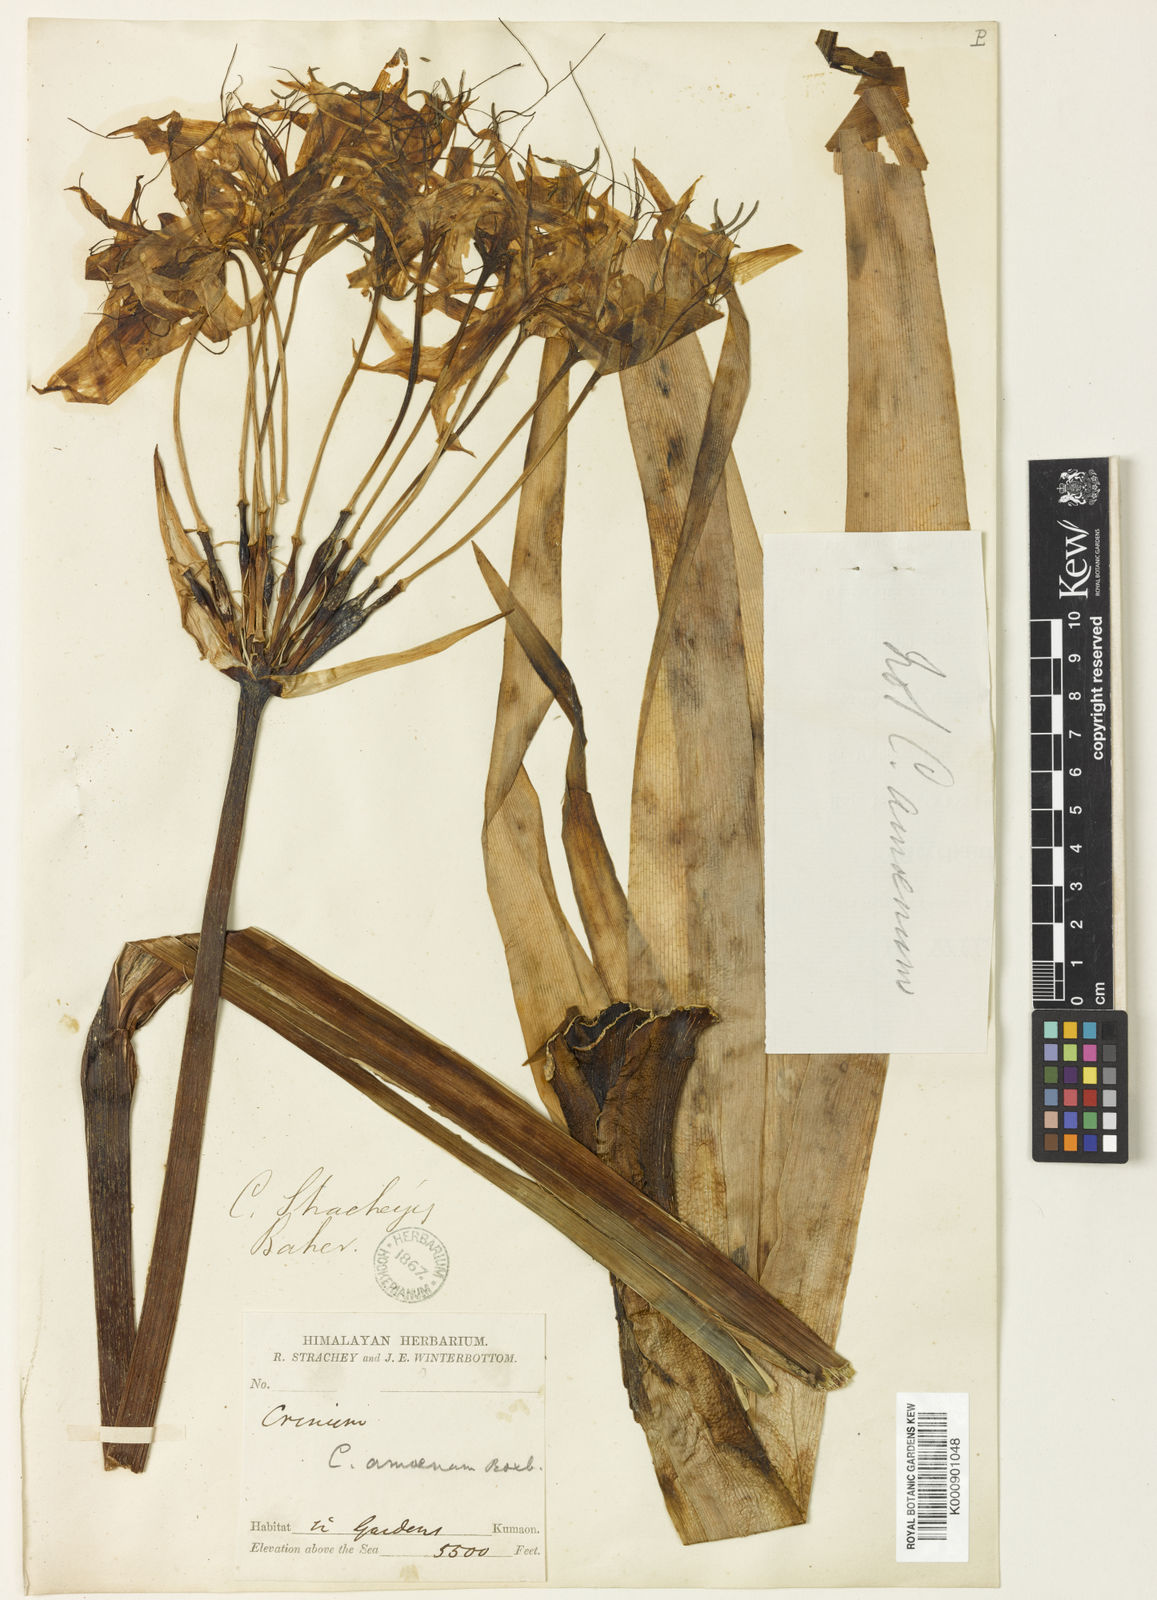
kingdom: Plantae
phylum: Tracheophyta
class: Liliopsida
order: Asparagales
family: Amaryllidaceae
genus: Crinum
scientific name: Crinum stracheyi
